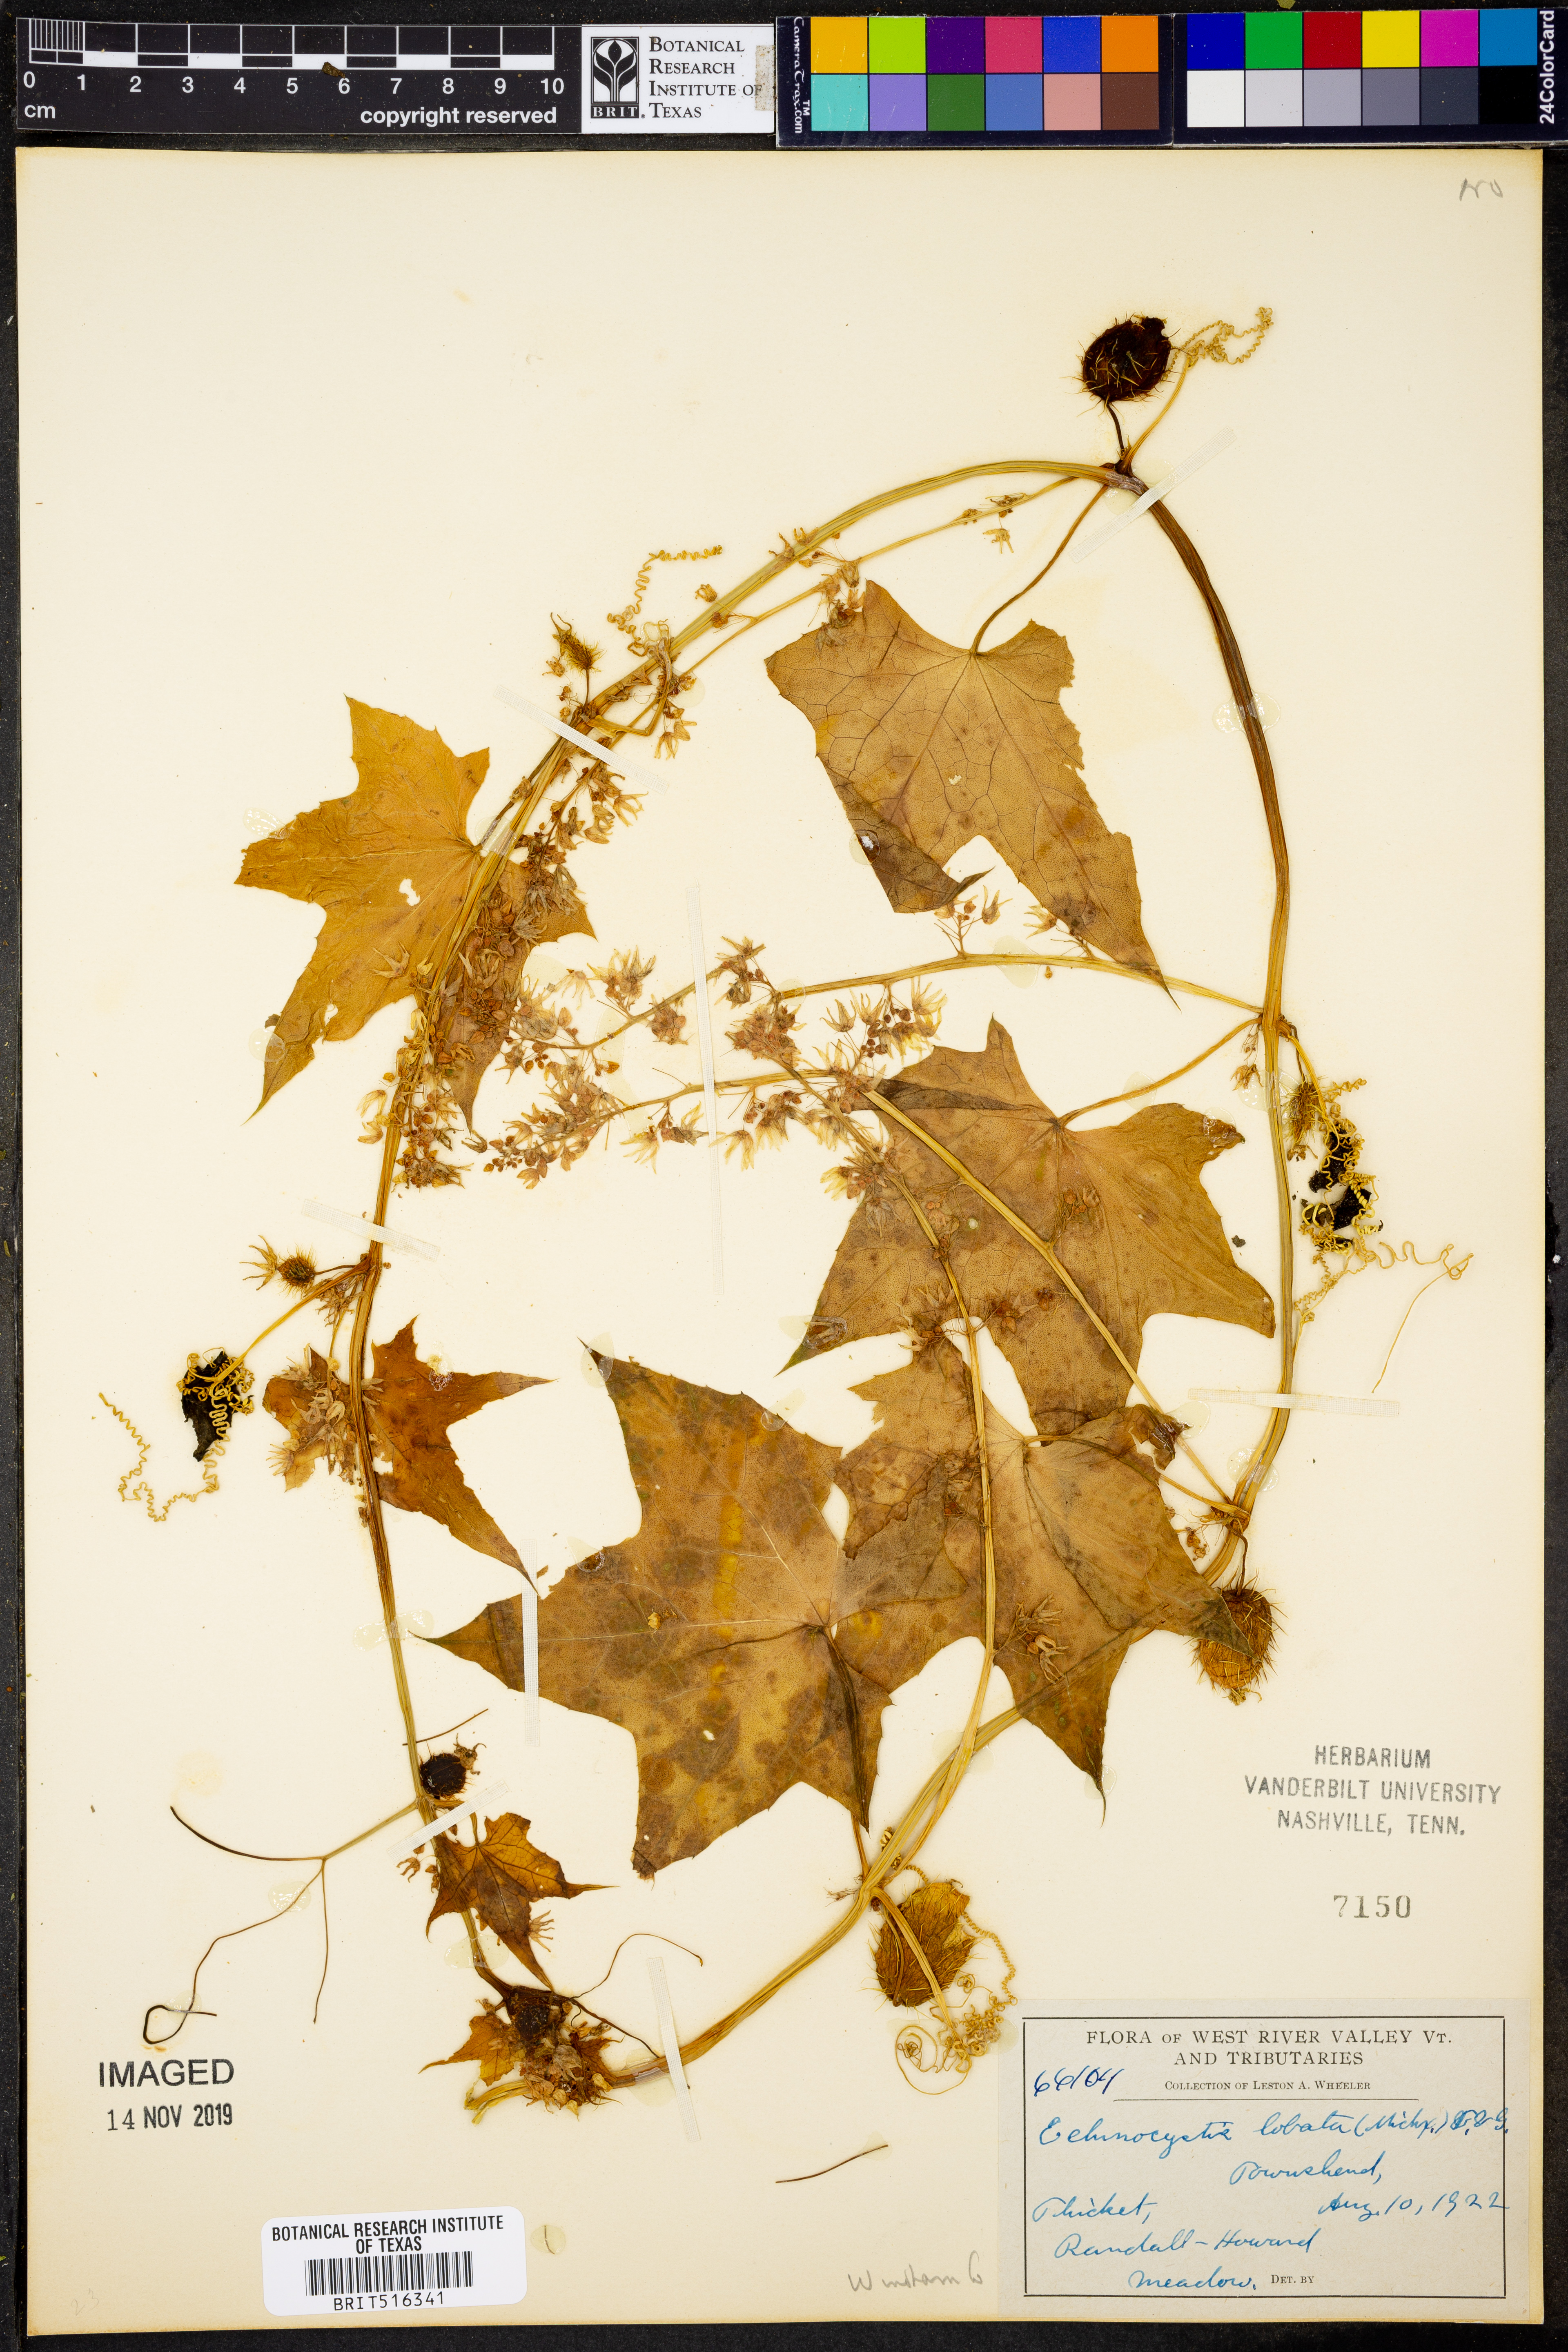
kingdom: Plantae
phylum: Tracheophyta
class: Magnoliopsida
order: Cucurbitales
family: Cucurbitaceae
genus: Echinocystis
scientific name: Echinocystis lobata
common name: Wild cucumber
